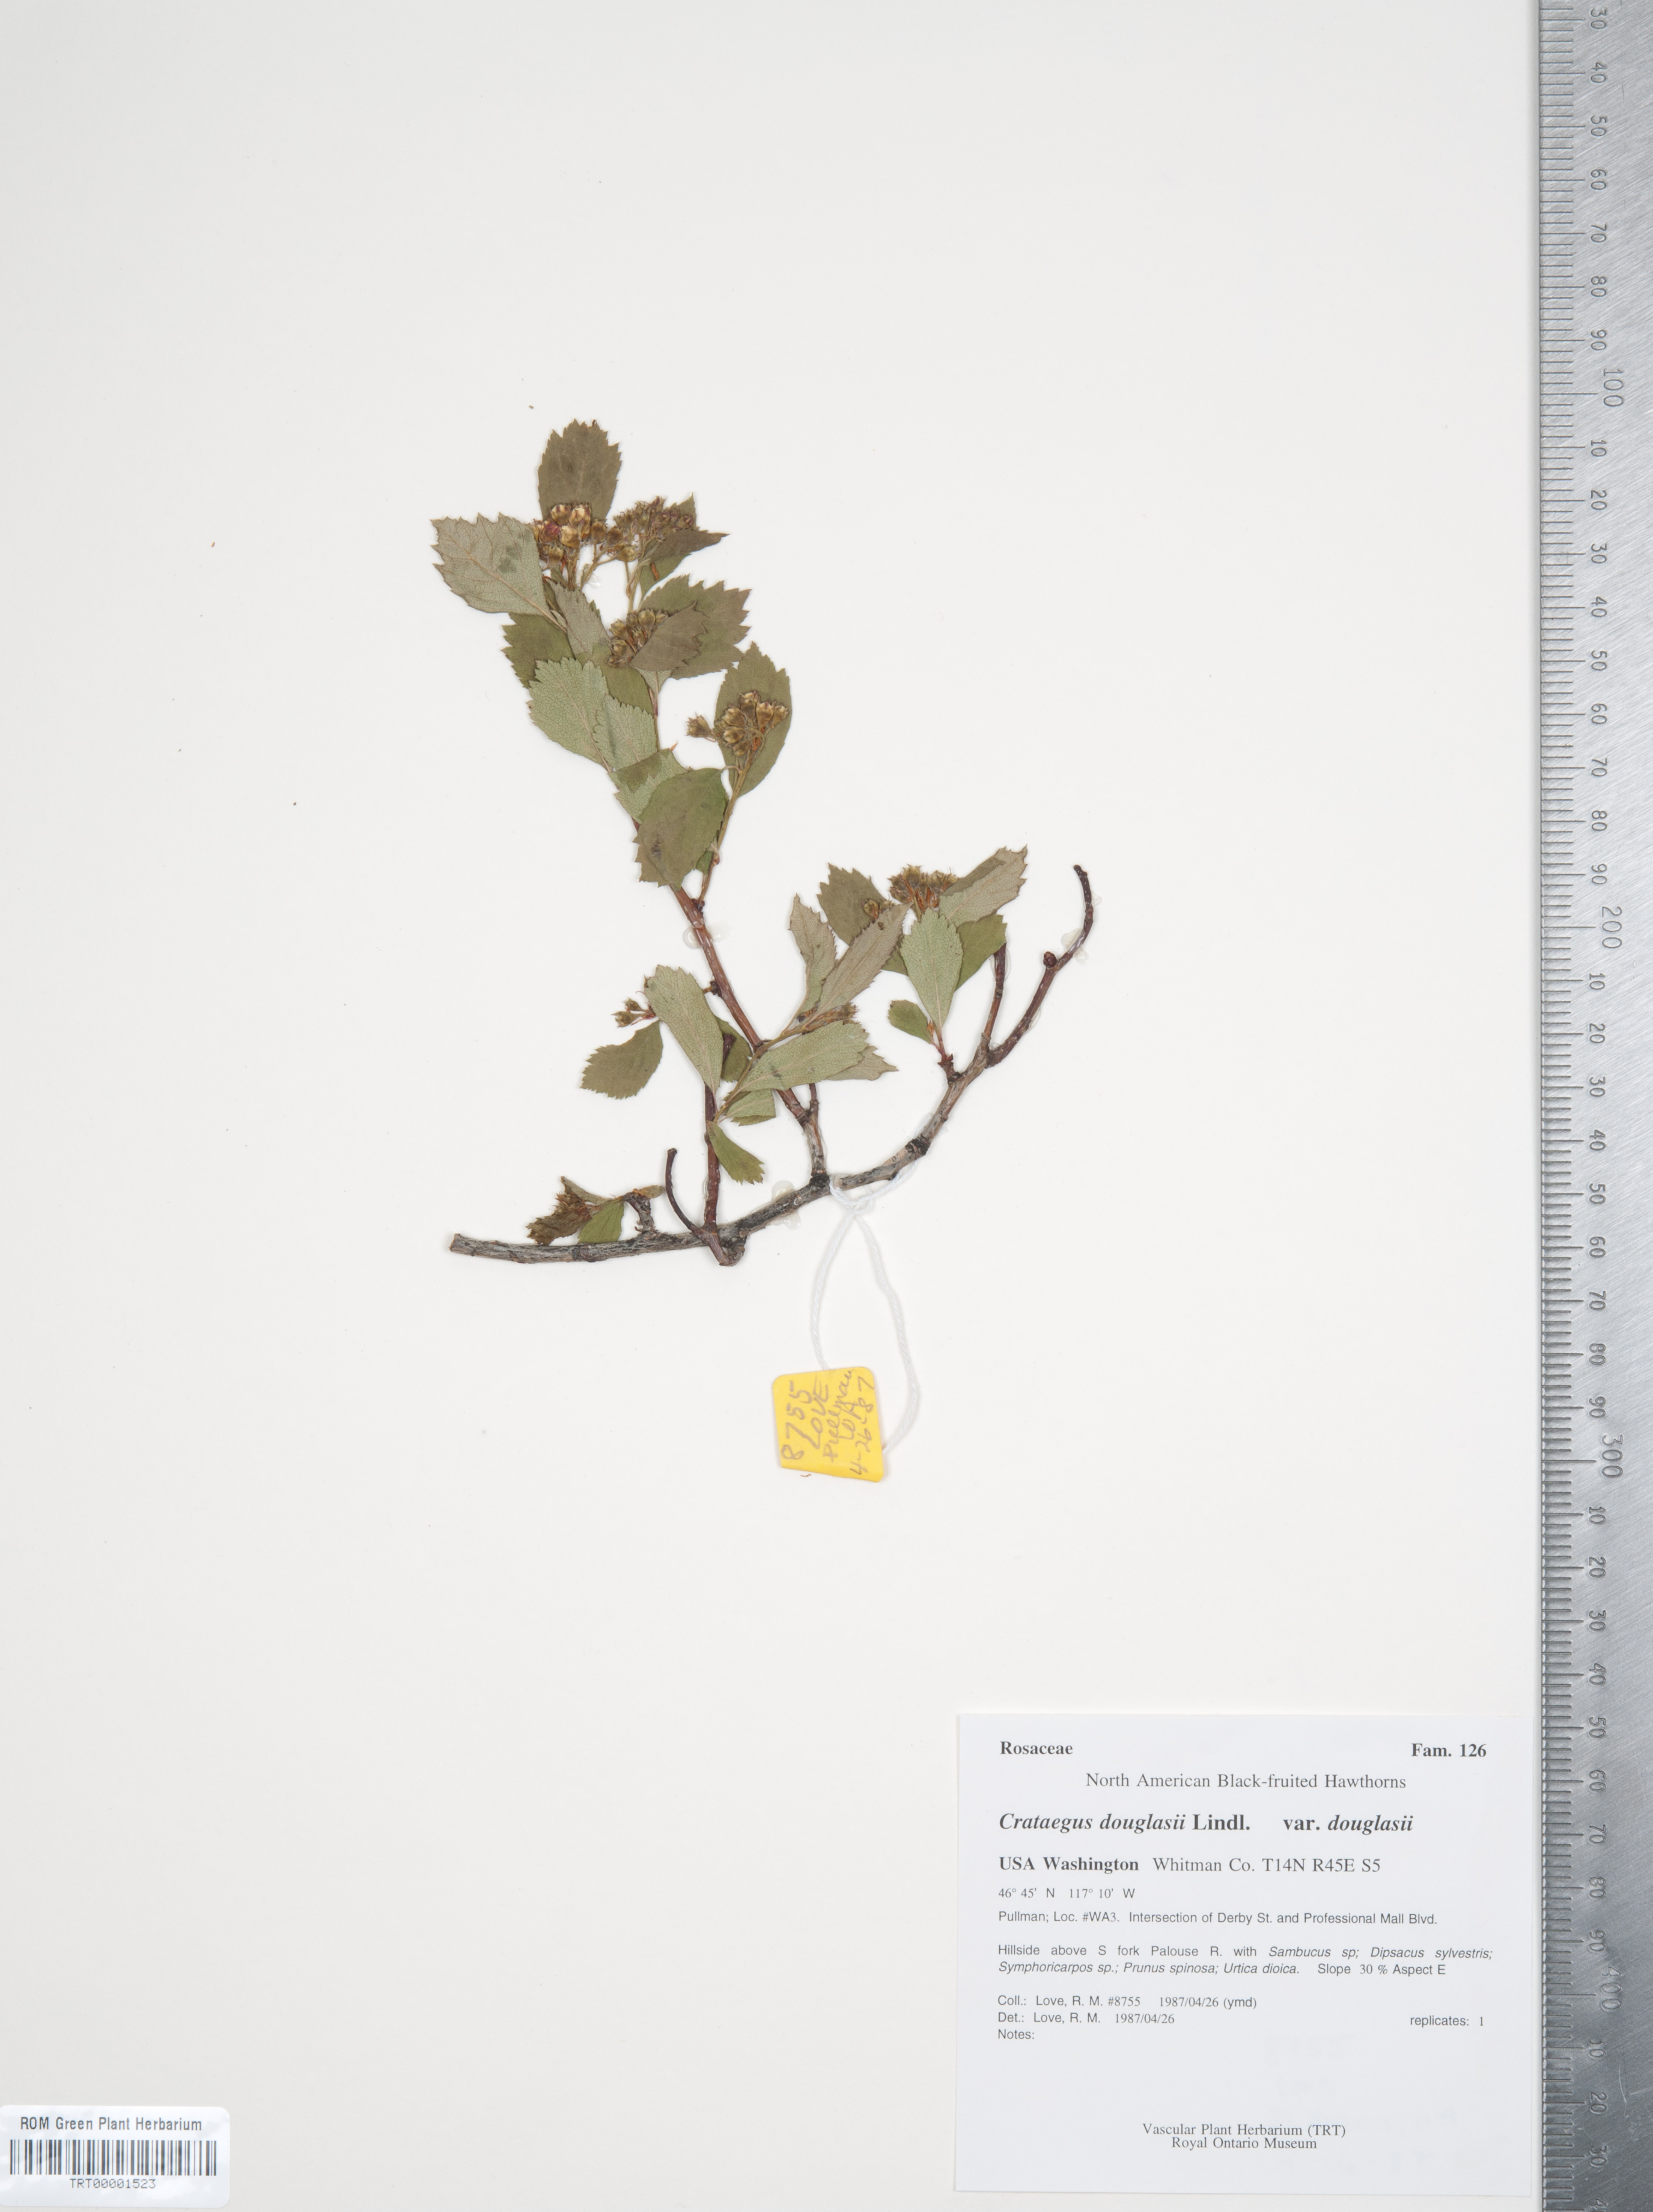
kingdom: Plantae
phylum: Tracheophyta
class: Magnoliopsida
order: Rosales
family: Rosaceae
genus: Crataegus
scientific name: Crataegus douglasii
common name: Black hawthorn
